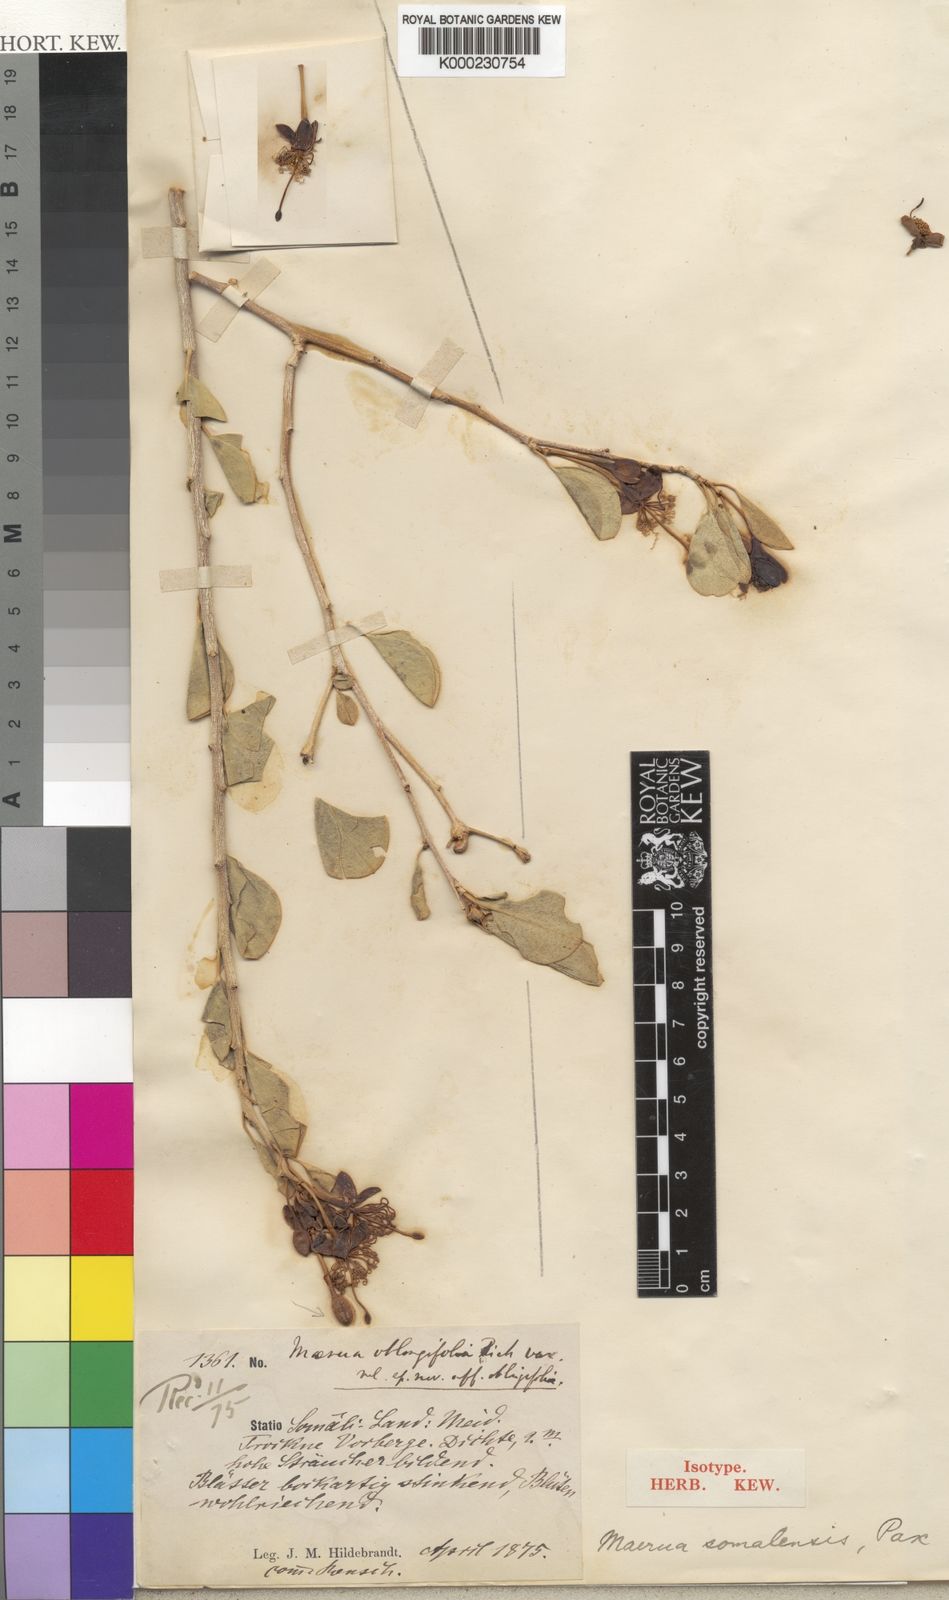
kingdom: Plantae
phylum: Tracheophyta
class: Magnoliopsida
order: Brassicales
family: Capparaceae
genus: Maerua
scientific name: Maerua oblongifolia
